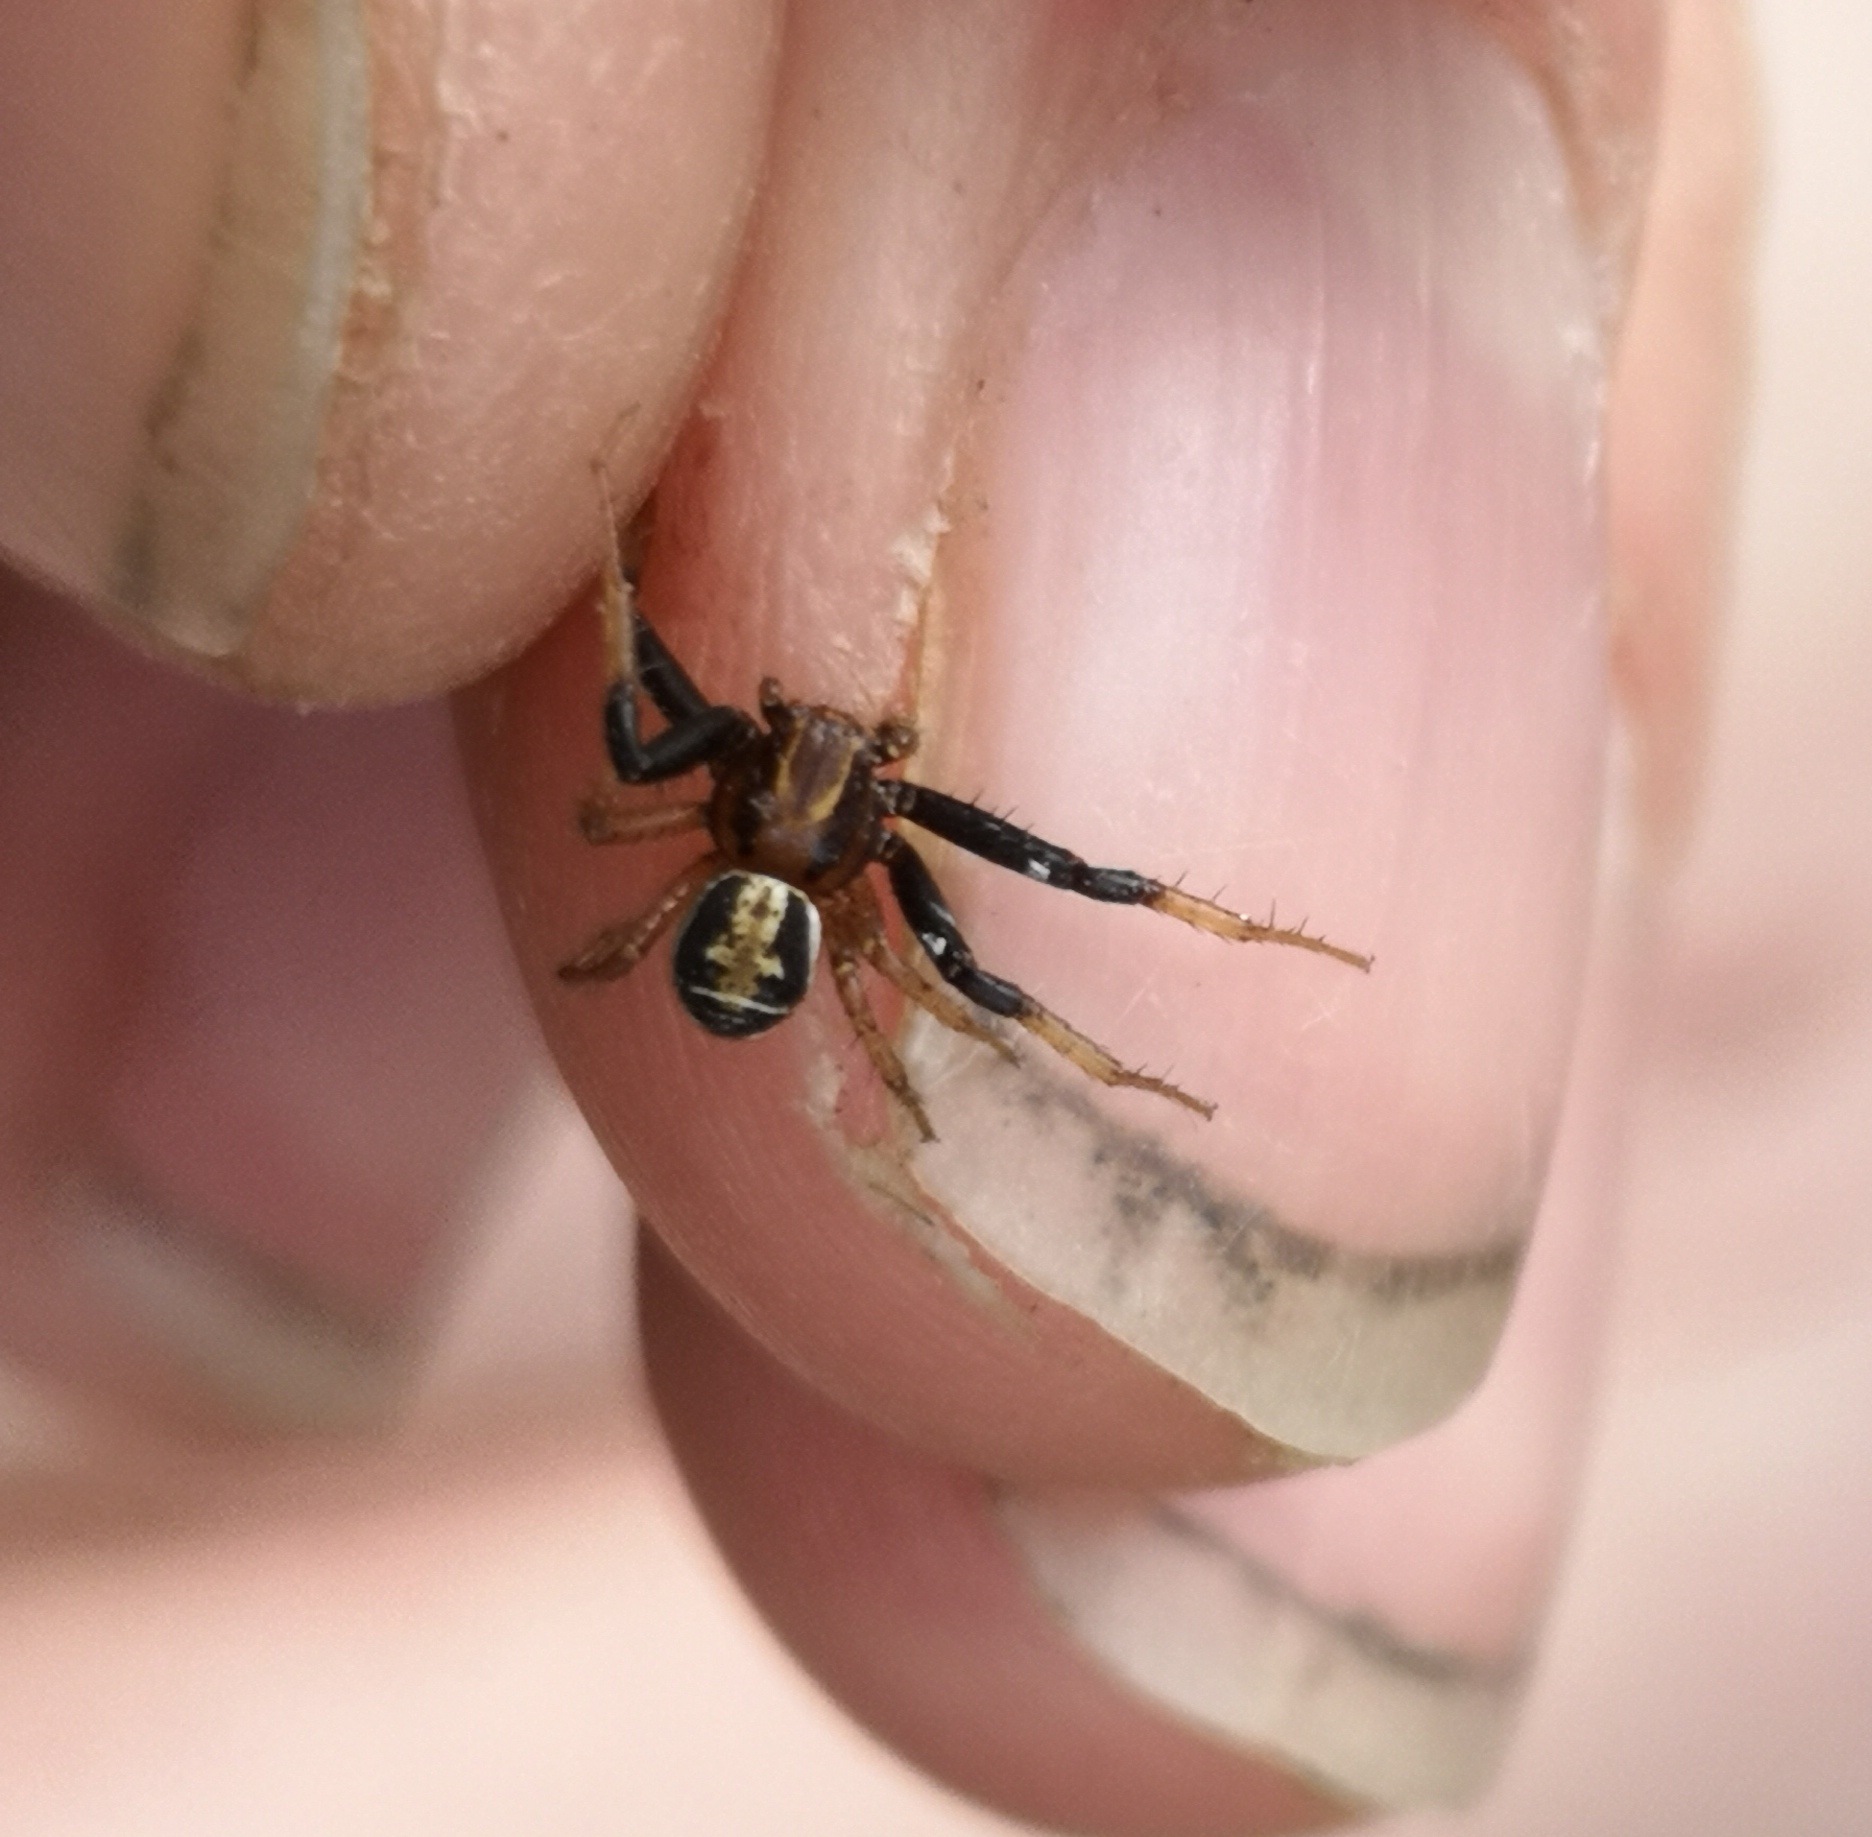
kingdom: Animalia
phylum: Arthropoda
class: Arachnida
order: Araneae
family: Thomisidae
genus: Xysticus
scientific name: Xysticus ulmi
